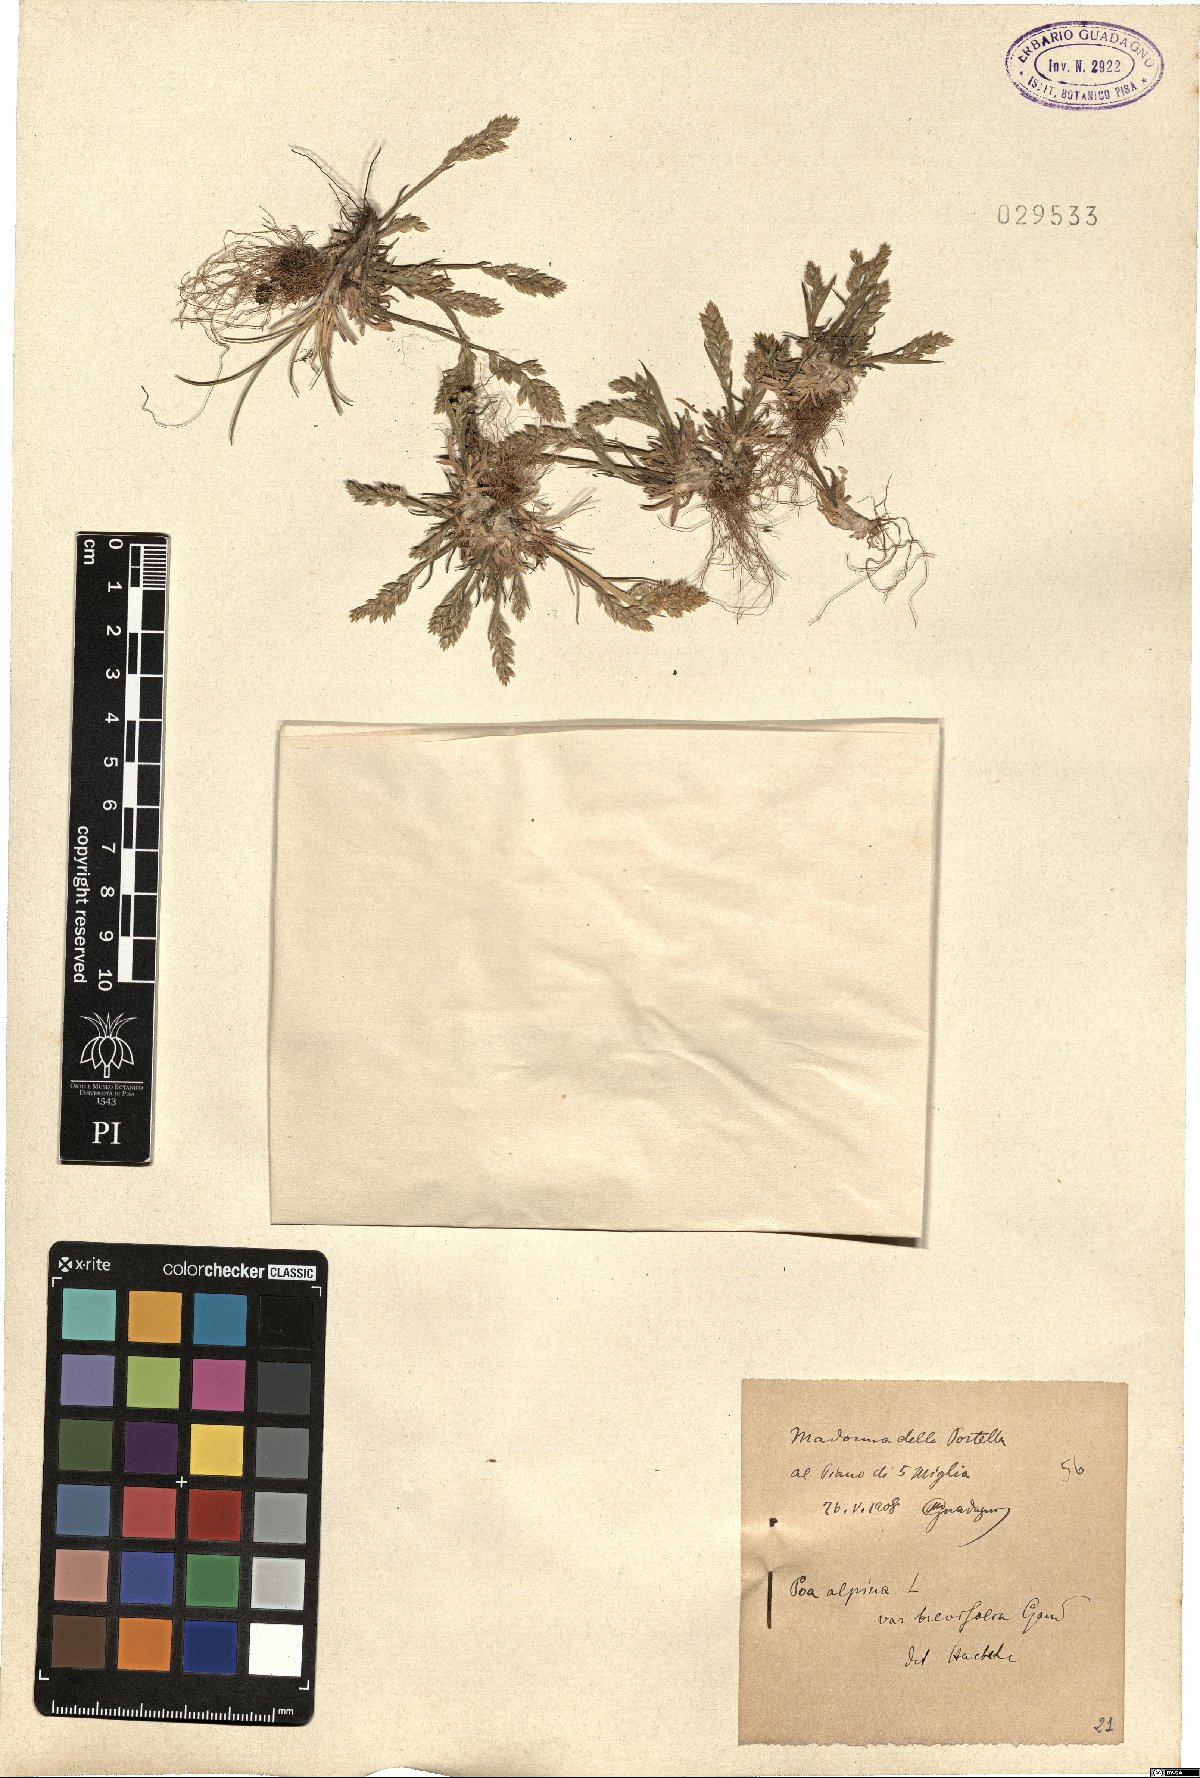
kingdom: Plantae
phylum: Tracheophyta
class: Liliopsida
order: Poales
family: Poaceae
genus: Poa
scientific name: Poa alpina
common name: Alpine bluegrass
